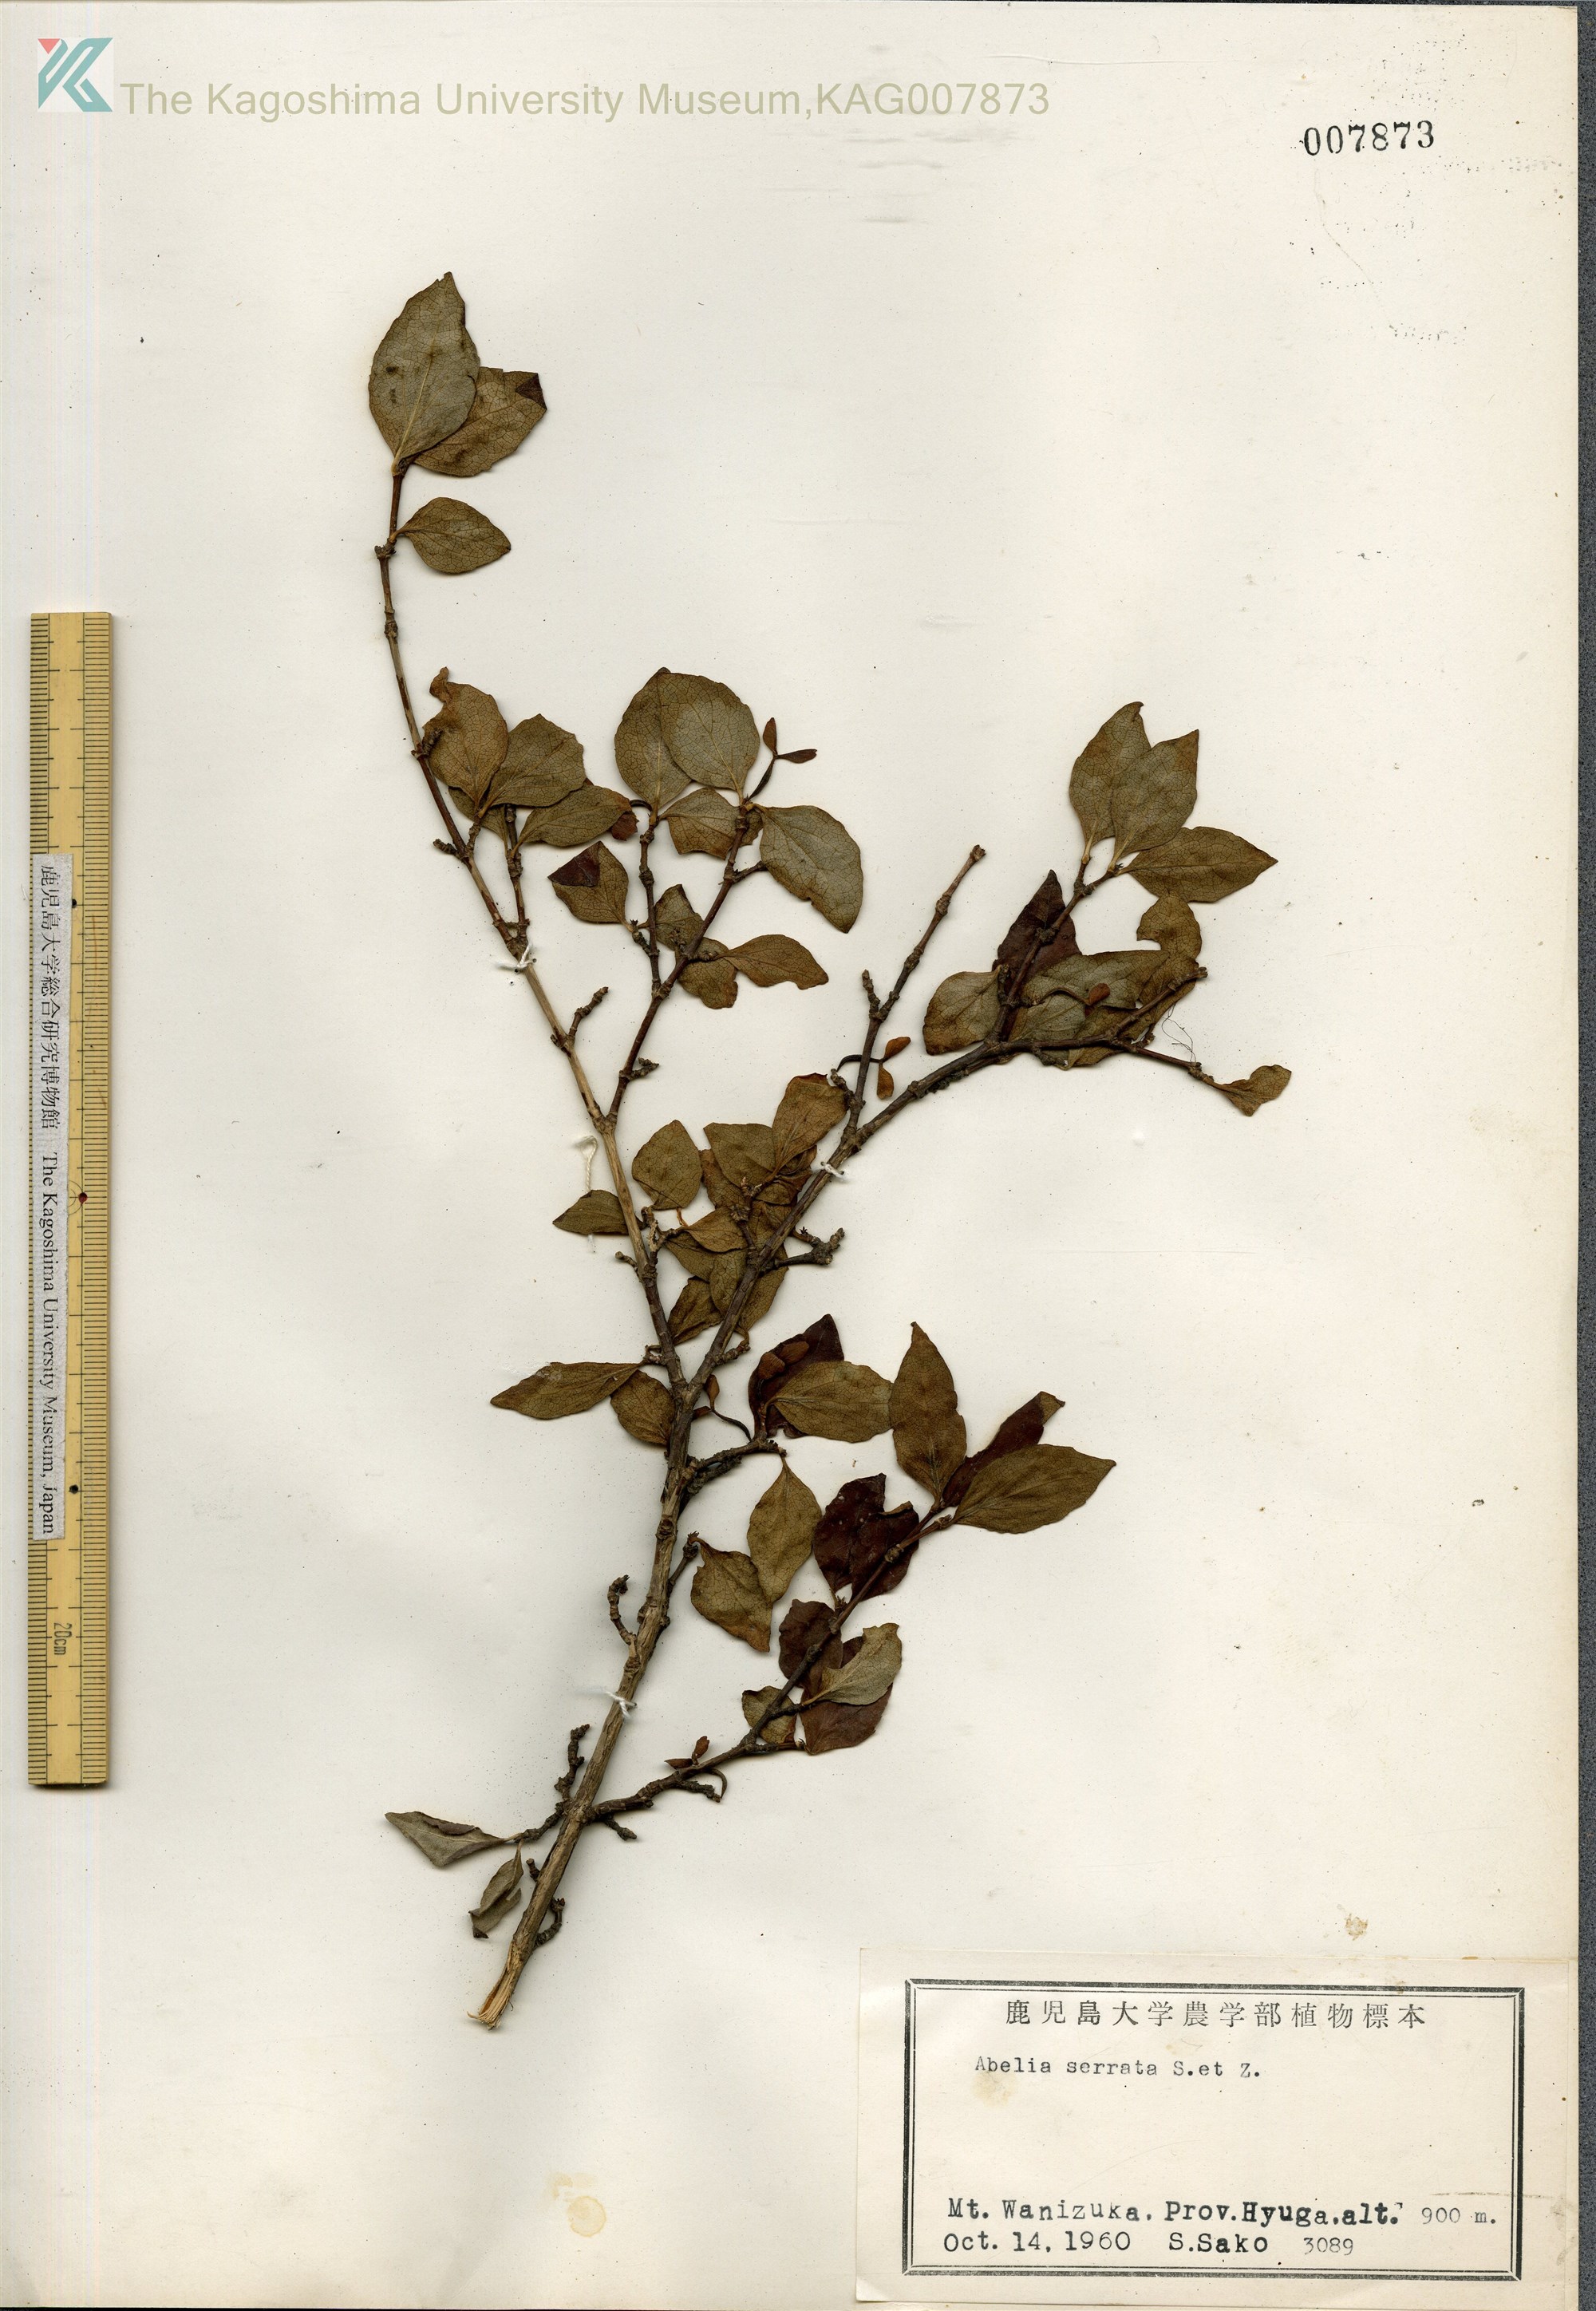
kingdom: Plantae
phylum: Tracheophyta
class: Magnoliopsida
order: Dipsacales
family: Caprifoliaceae
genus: Diabelia
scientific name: Diabelia serrata
